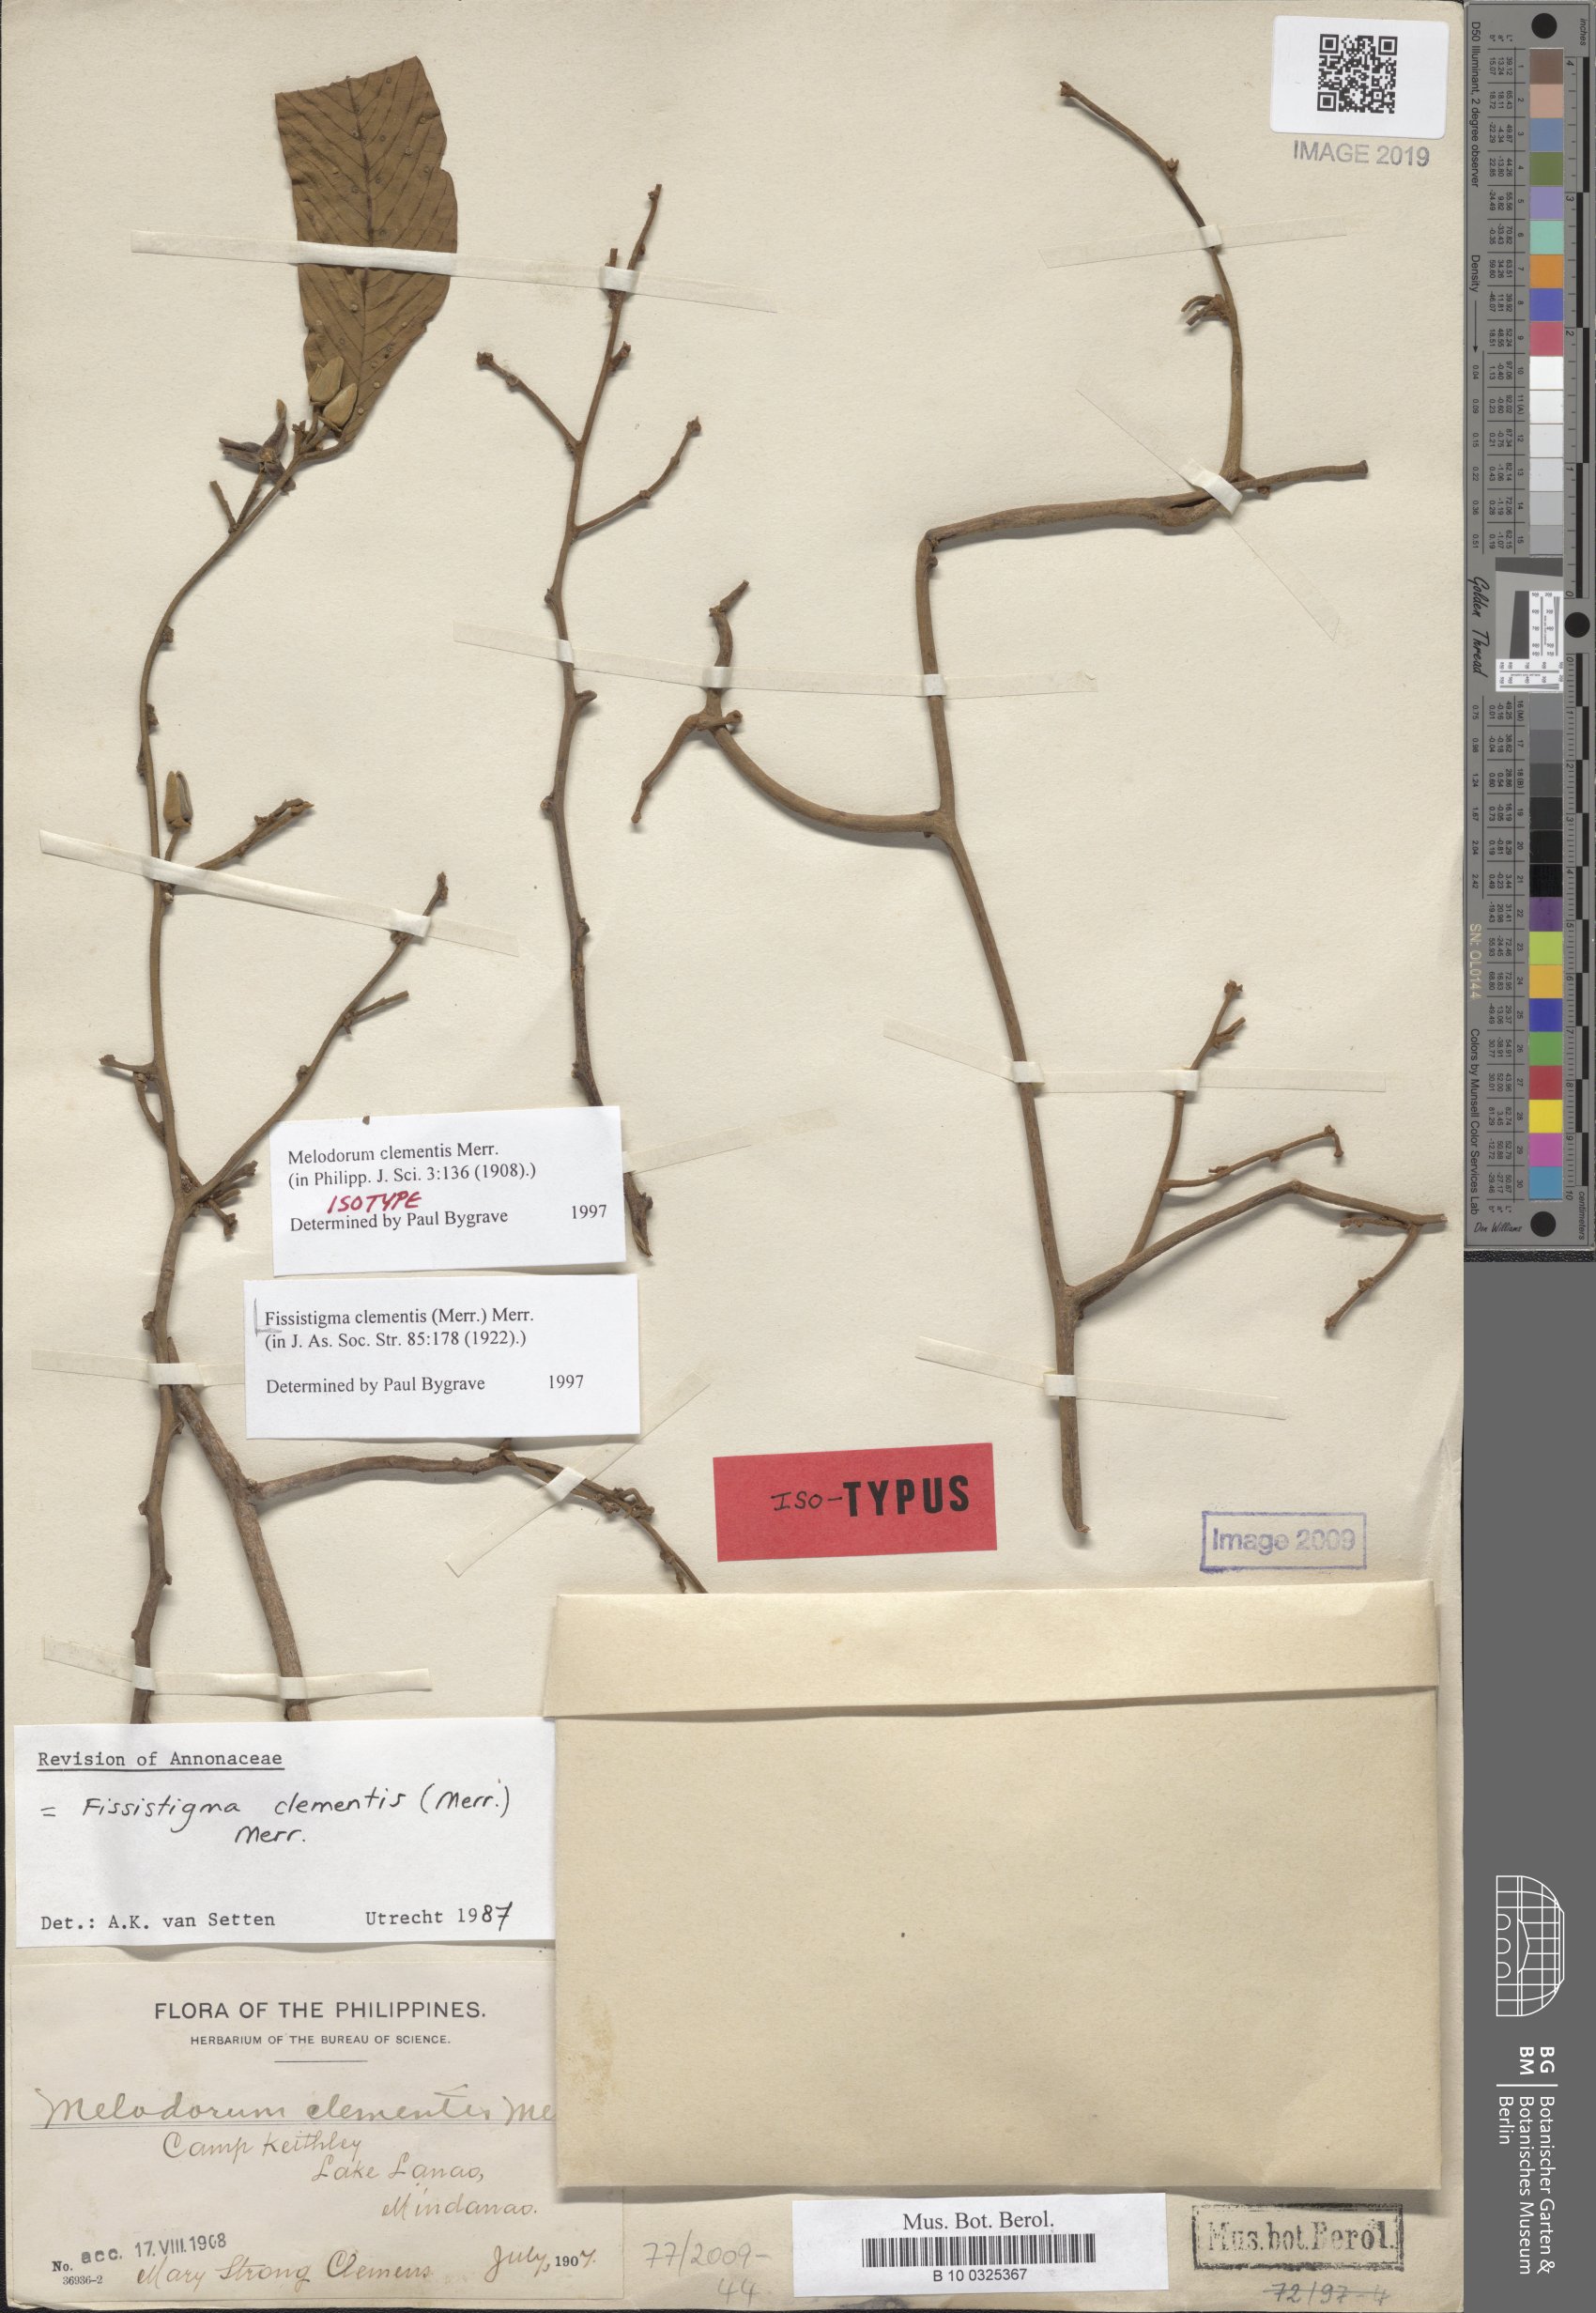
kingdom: Plantae
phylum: Tracheophyta
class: Magnoliopsida
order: Magnoliales
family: Annonaceae
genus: Mitrella
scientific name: Mitrella clementis
